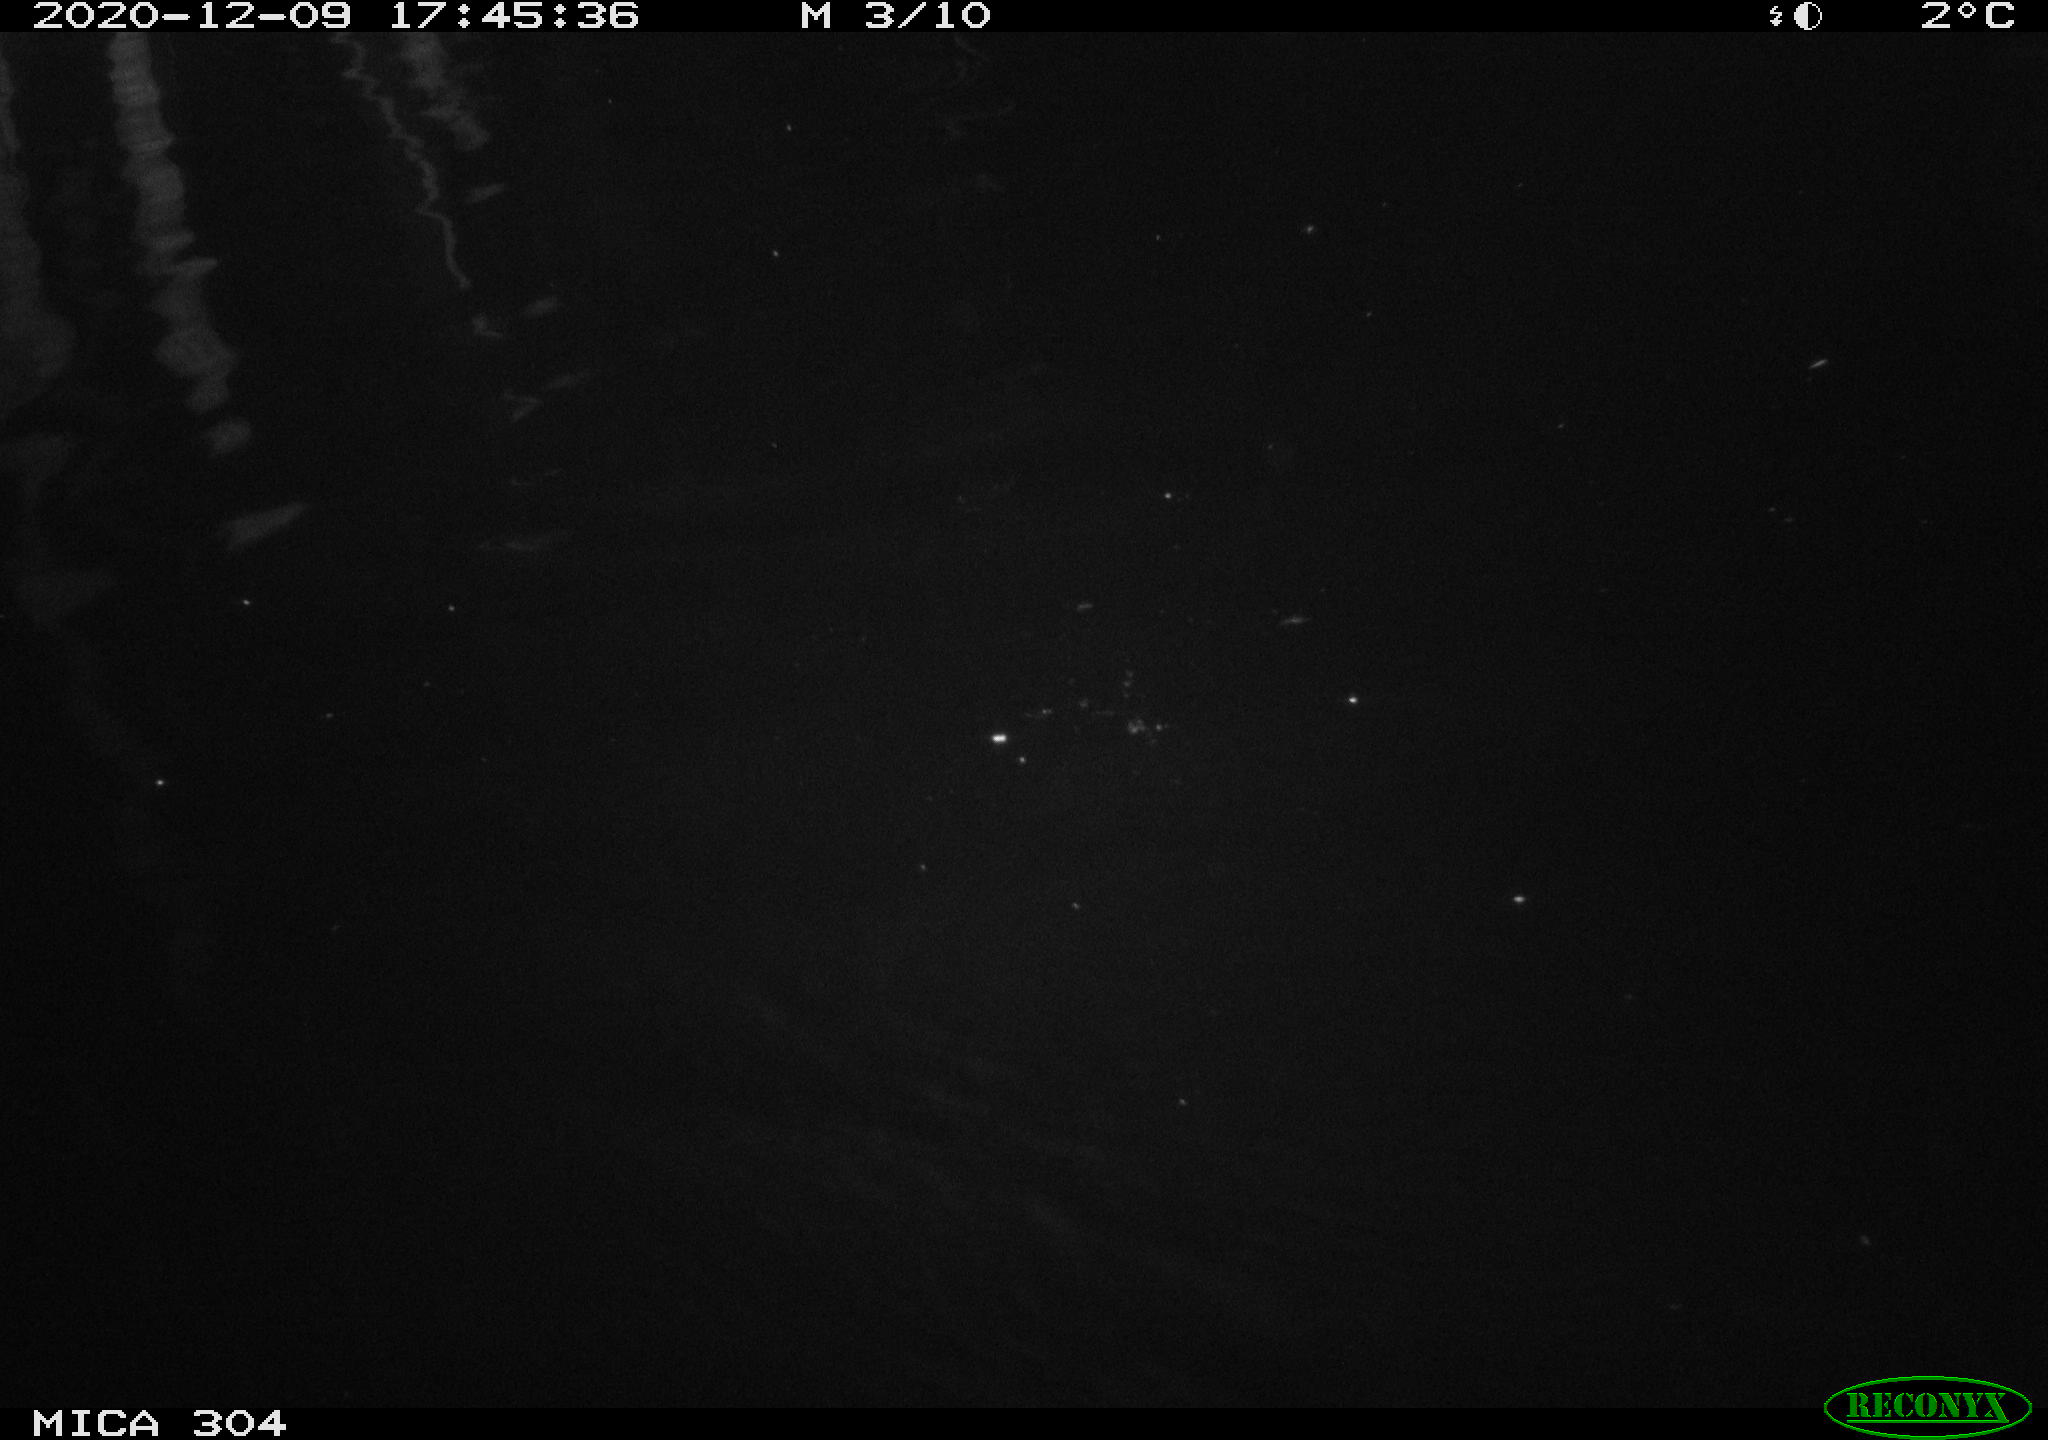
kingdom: Animalia
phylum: Chordata
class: Mammalia
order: Rodentia
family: Muridae
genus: Rattus
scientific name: Rattus norvegicus
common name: Brown rat
